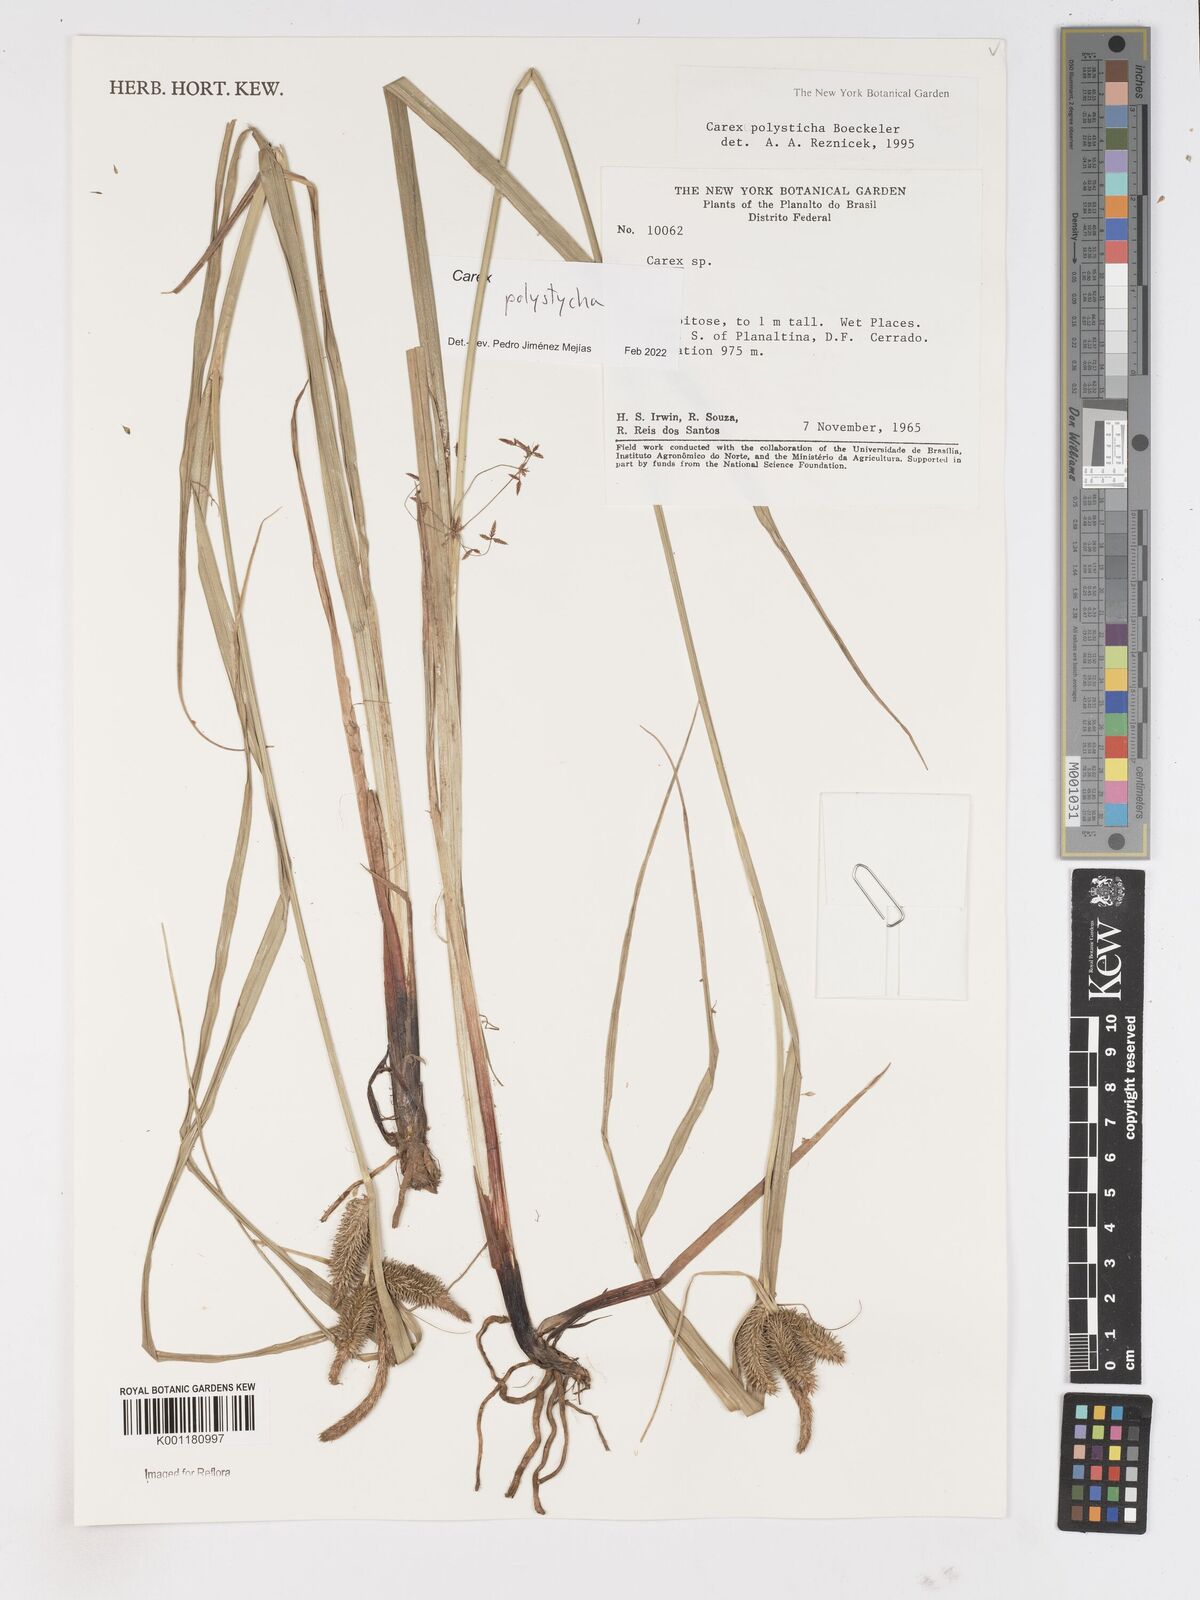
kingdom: Plantae
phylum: Tracheophyta
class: Liliopsida
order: Poales
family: Cyperaceae
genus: Carex
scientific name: Carex polysticha
